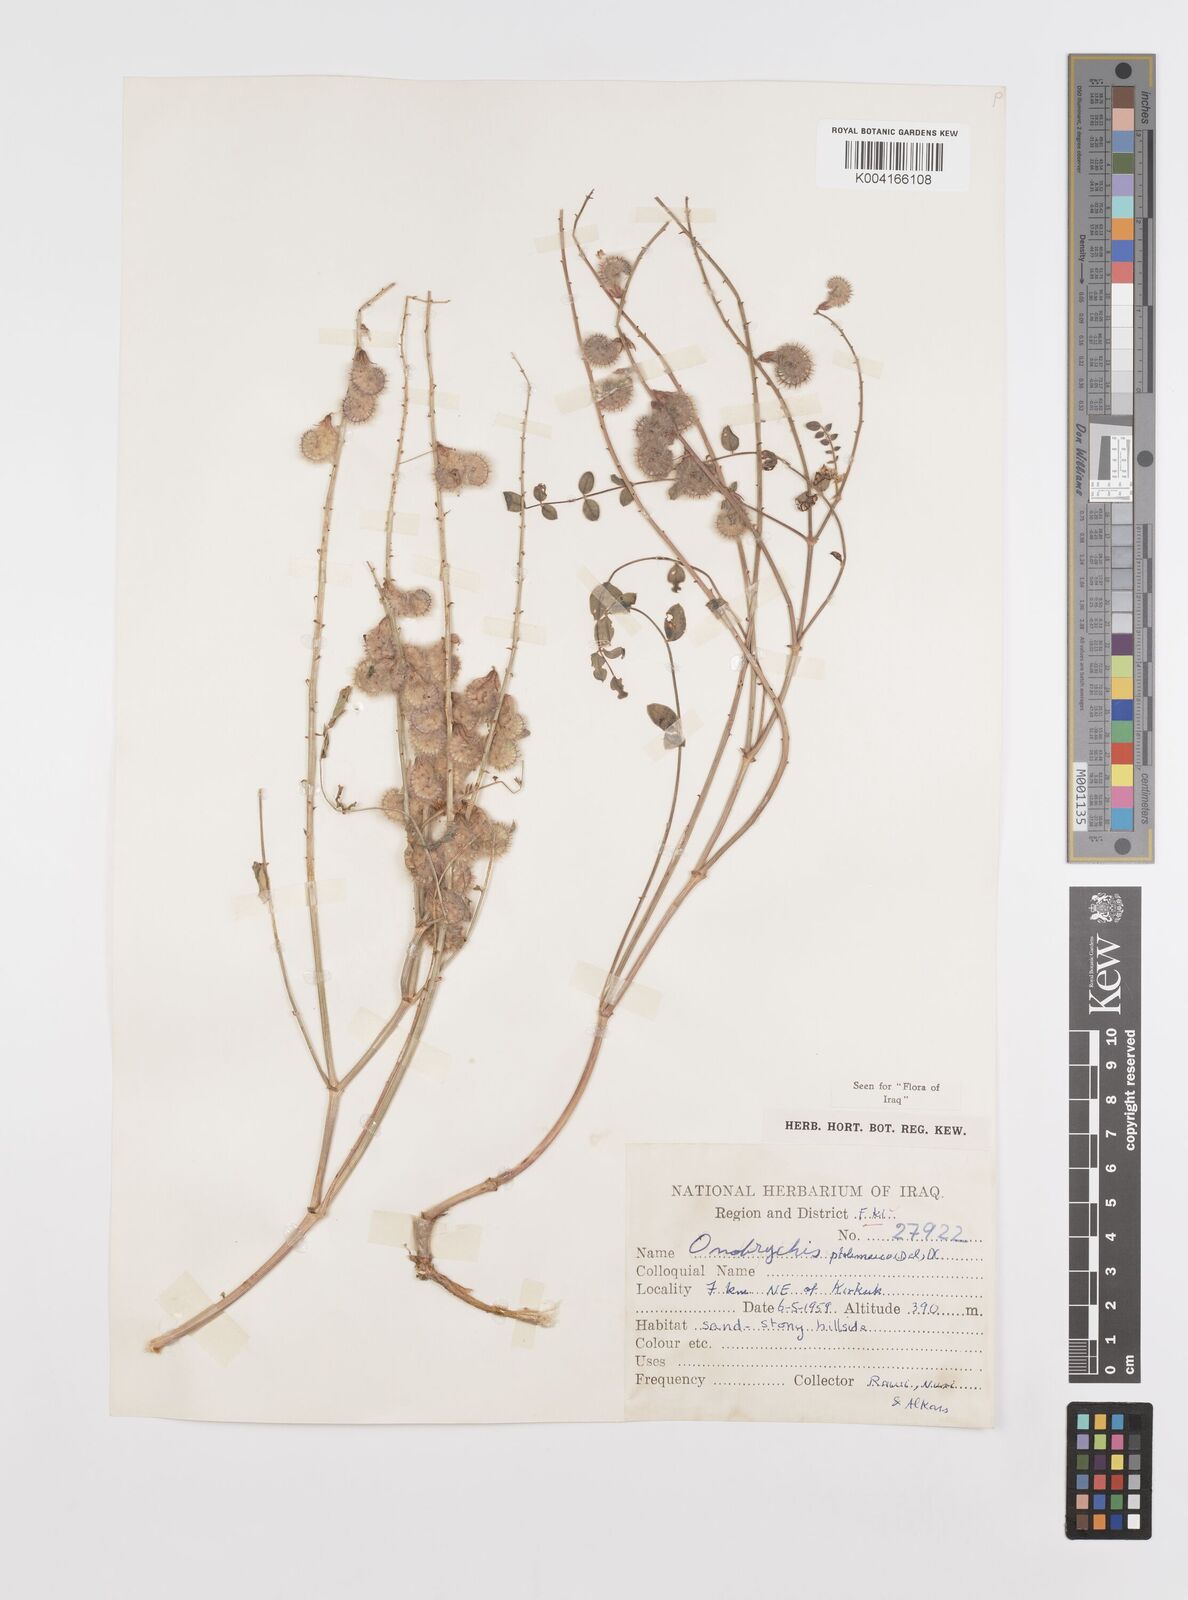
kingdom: Plantae
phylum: Tracheophyta
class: Magnoliopsida
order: Fabales
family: Fabaceae
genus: Onobrychis
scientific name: Onobrychis ptolemaica
